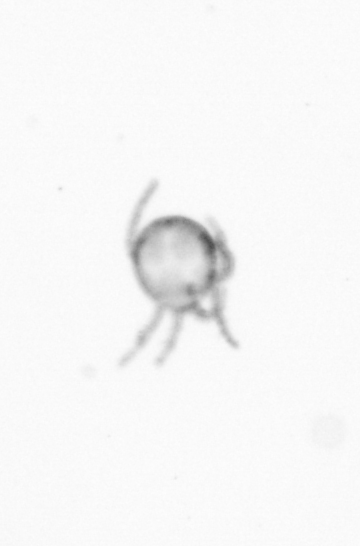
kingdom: Animalia
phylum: Arthropoda
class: Copepoda
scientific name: Copepoda
